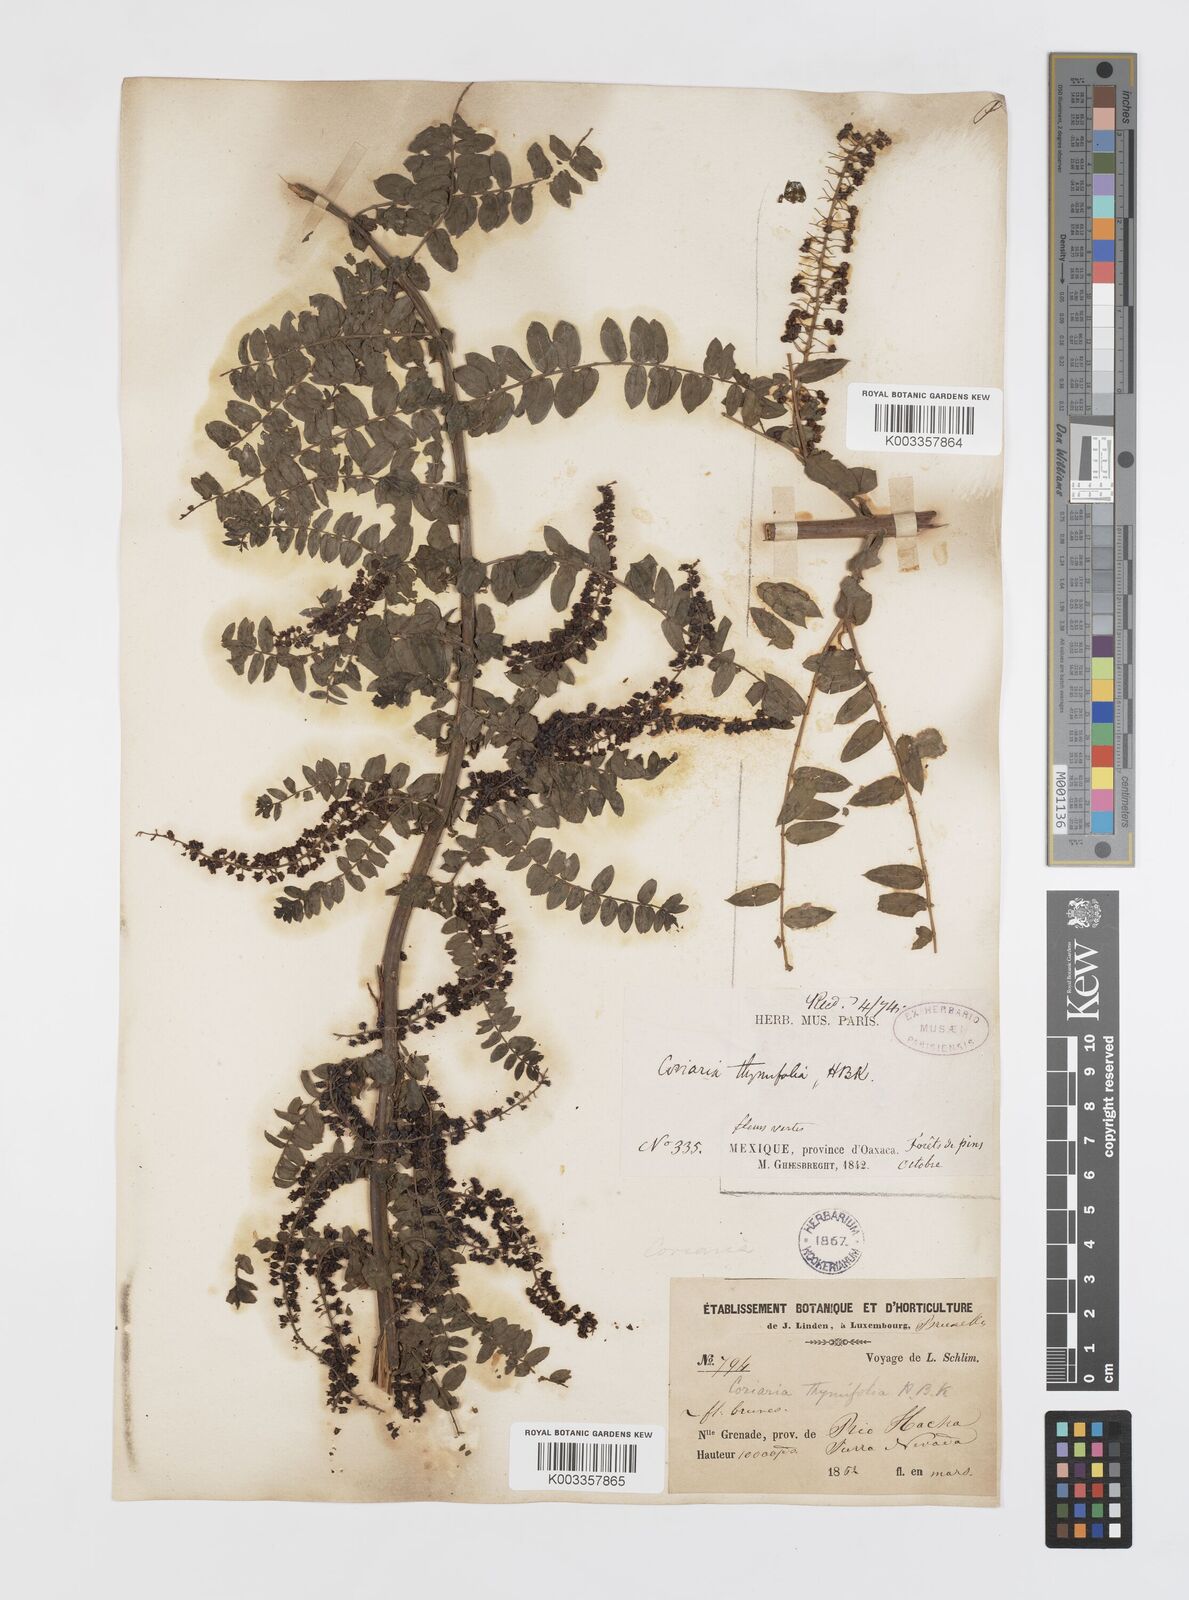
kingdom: Plantae
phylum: Tracheophyta
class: Magnoliopsida
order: Cucurbitales
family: Coriariaceae
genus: Coriaria
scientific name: Coriaria microphylla
